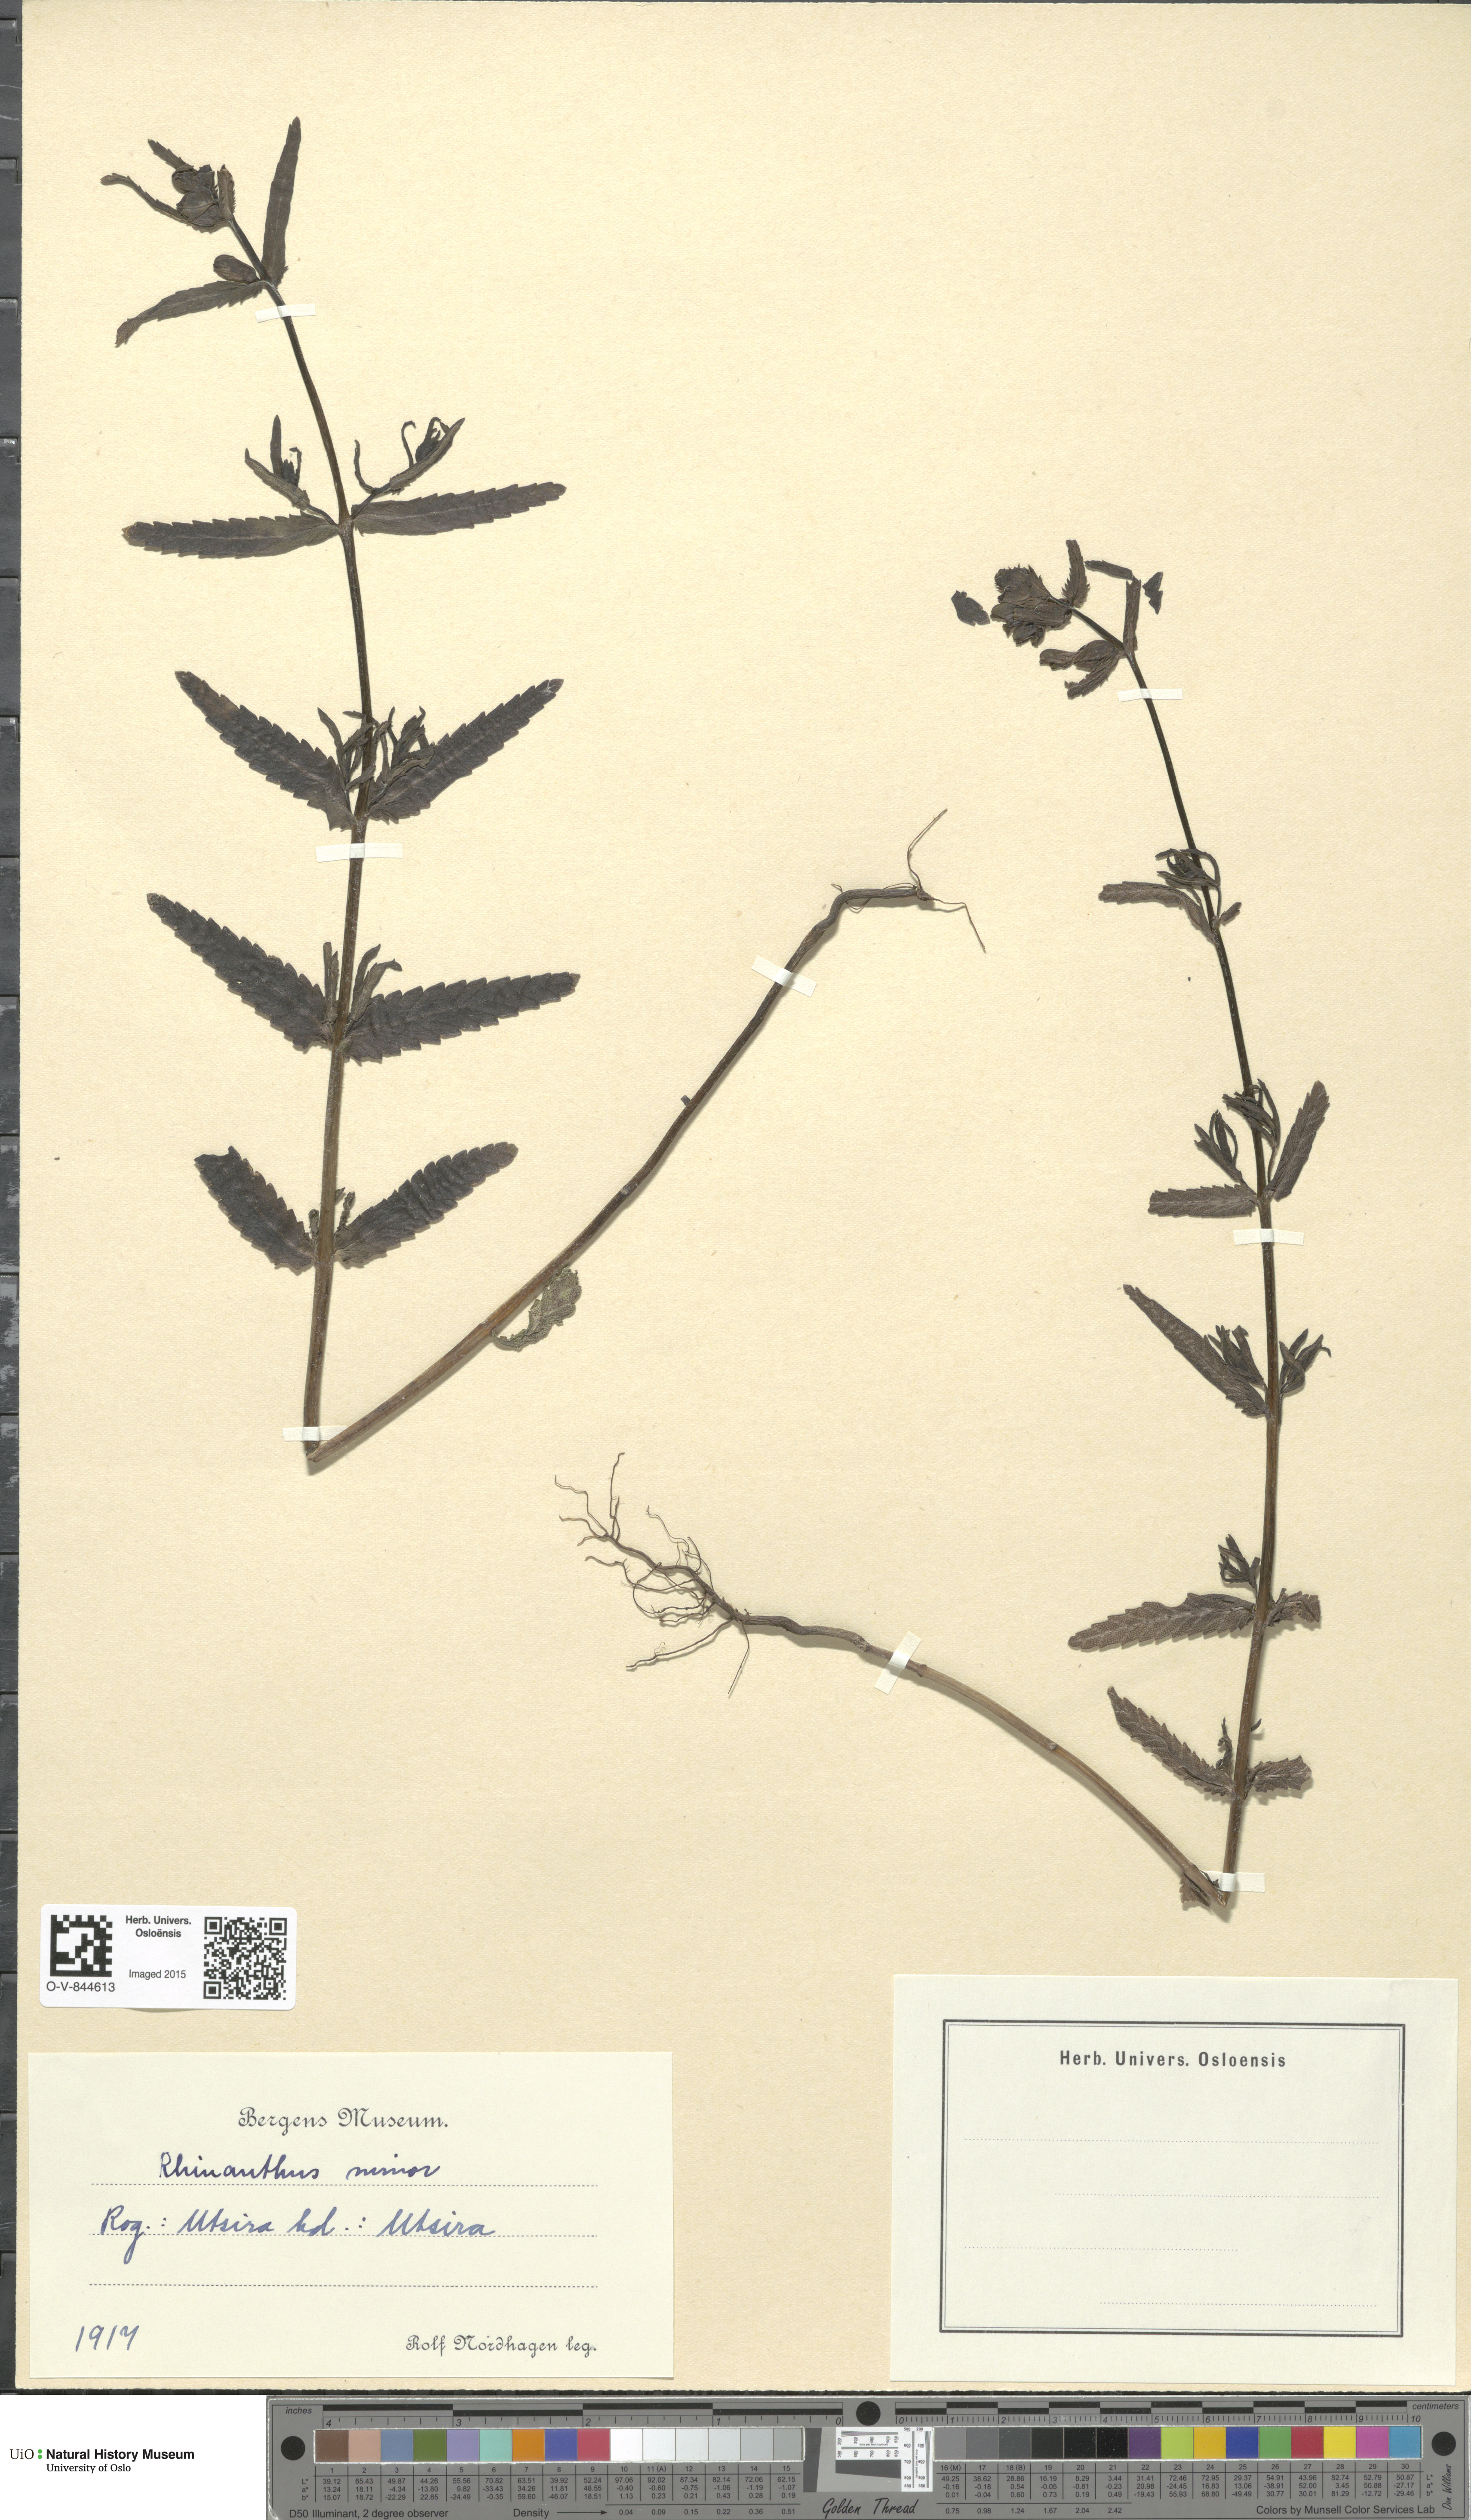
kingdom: Plantae
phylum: Tracheophyta
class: Magnoliopsida
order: Lamiales
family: Orobanchaceae
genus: Rhinanthus
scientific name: Rhinanthus minor
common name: Yellow-rattle
